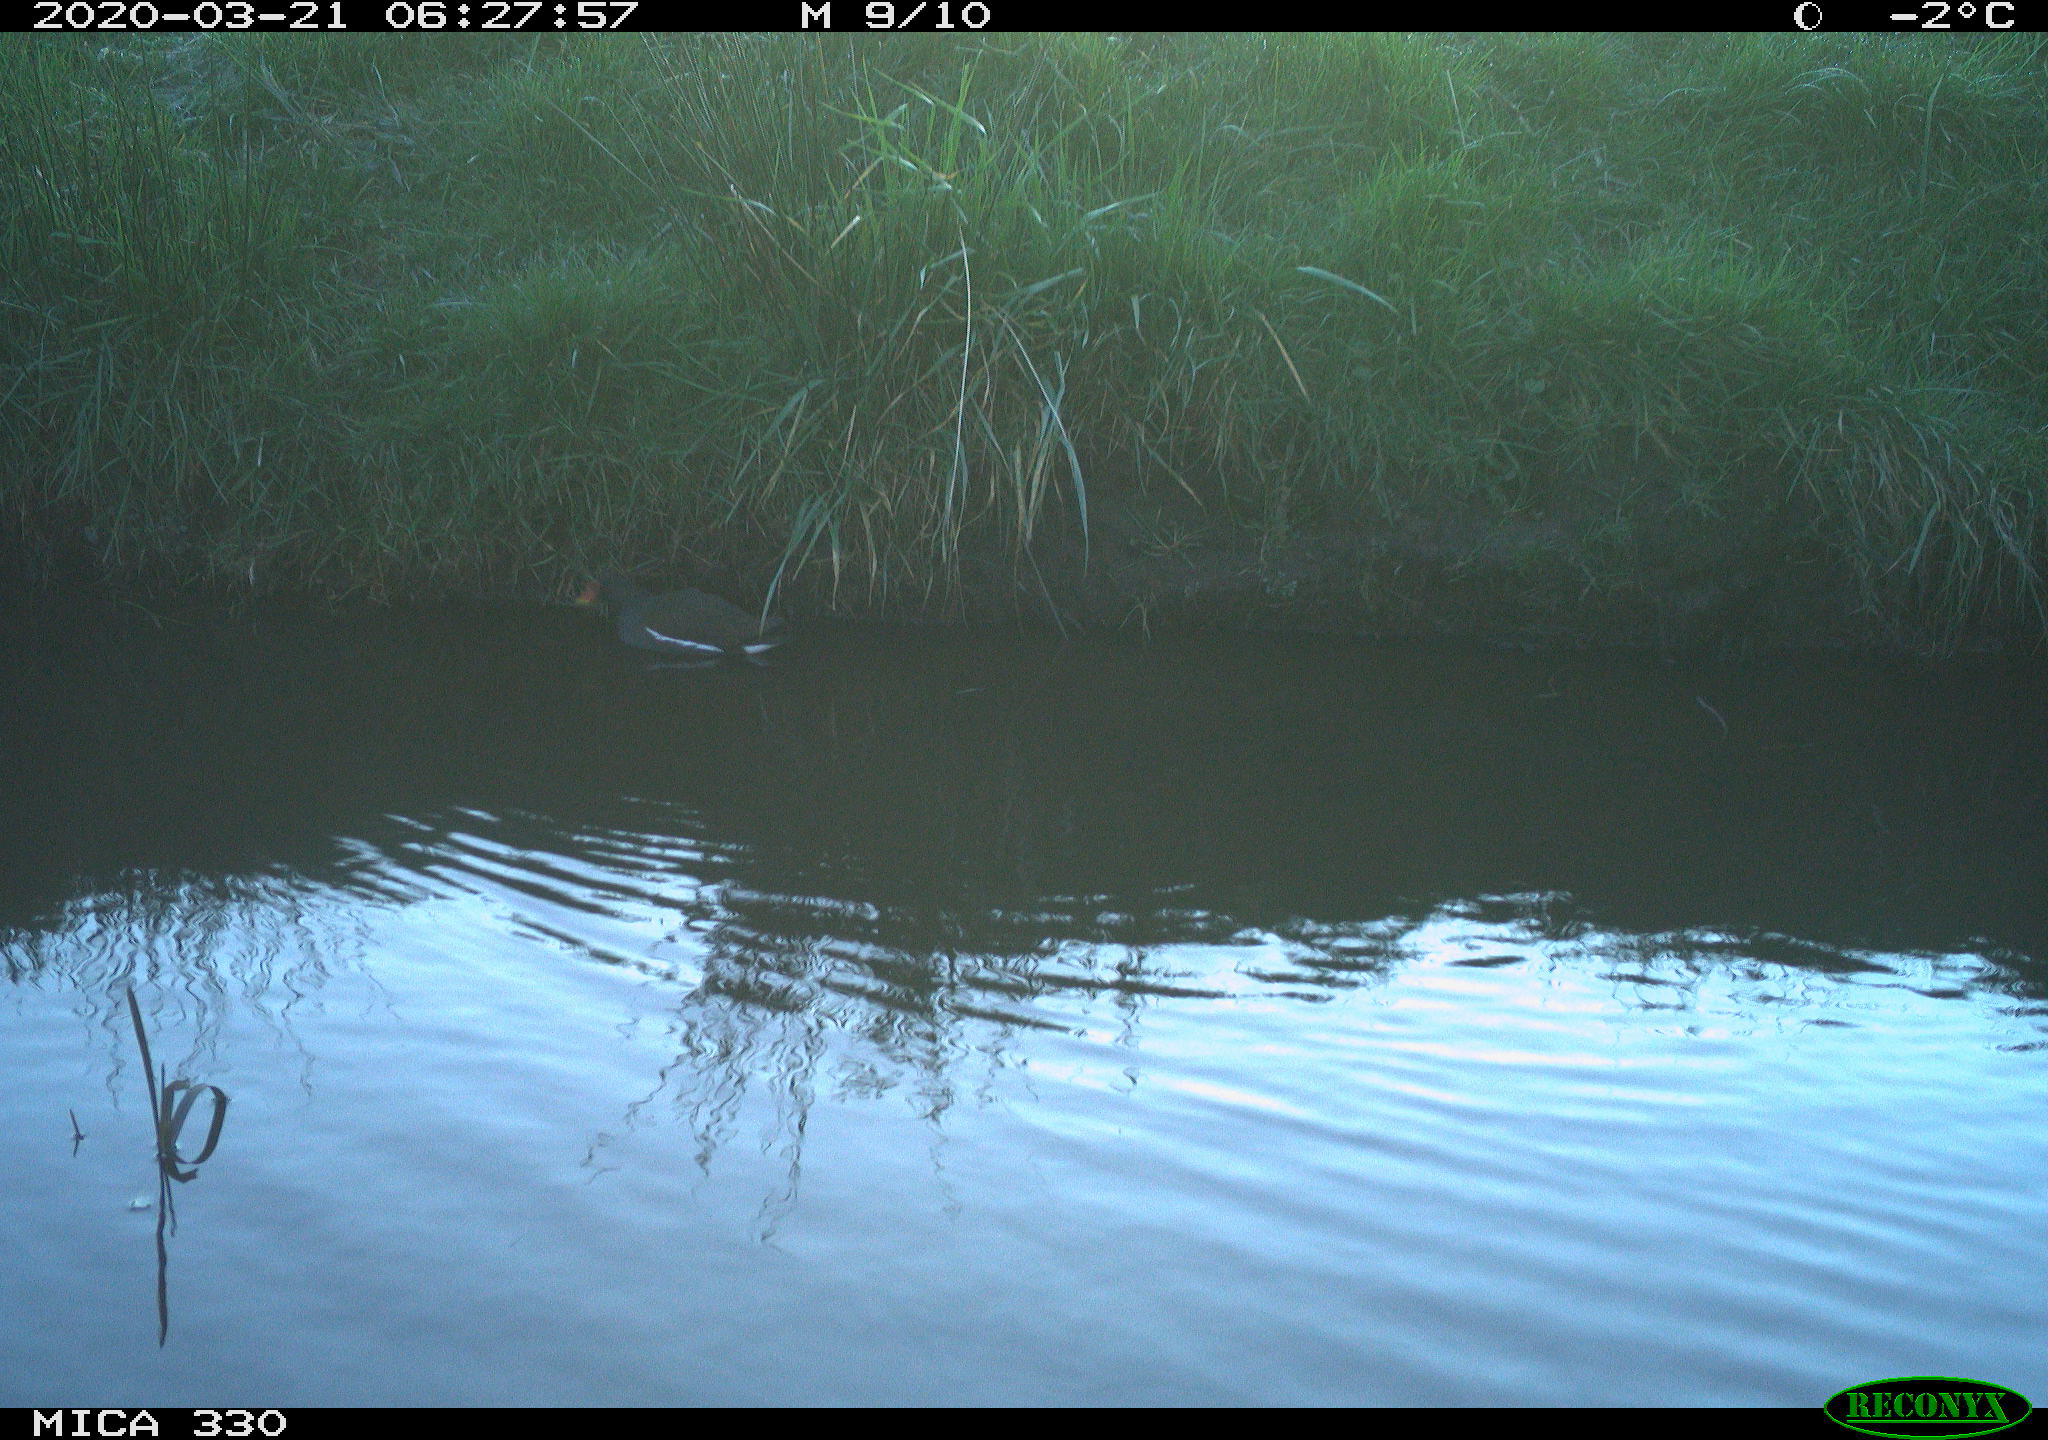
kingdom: Animalia
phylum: Chordata
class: Aves
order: Gruiformes
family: Rallidae
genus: Gallinula
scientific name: Gallinula chloropus
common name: Common moorhen
